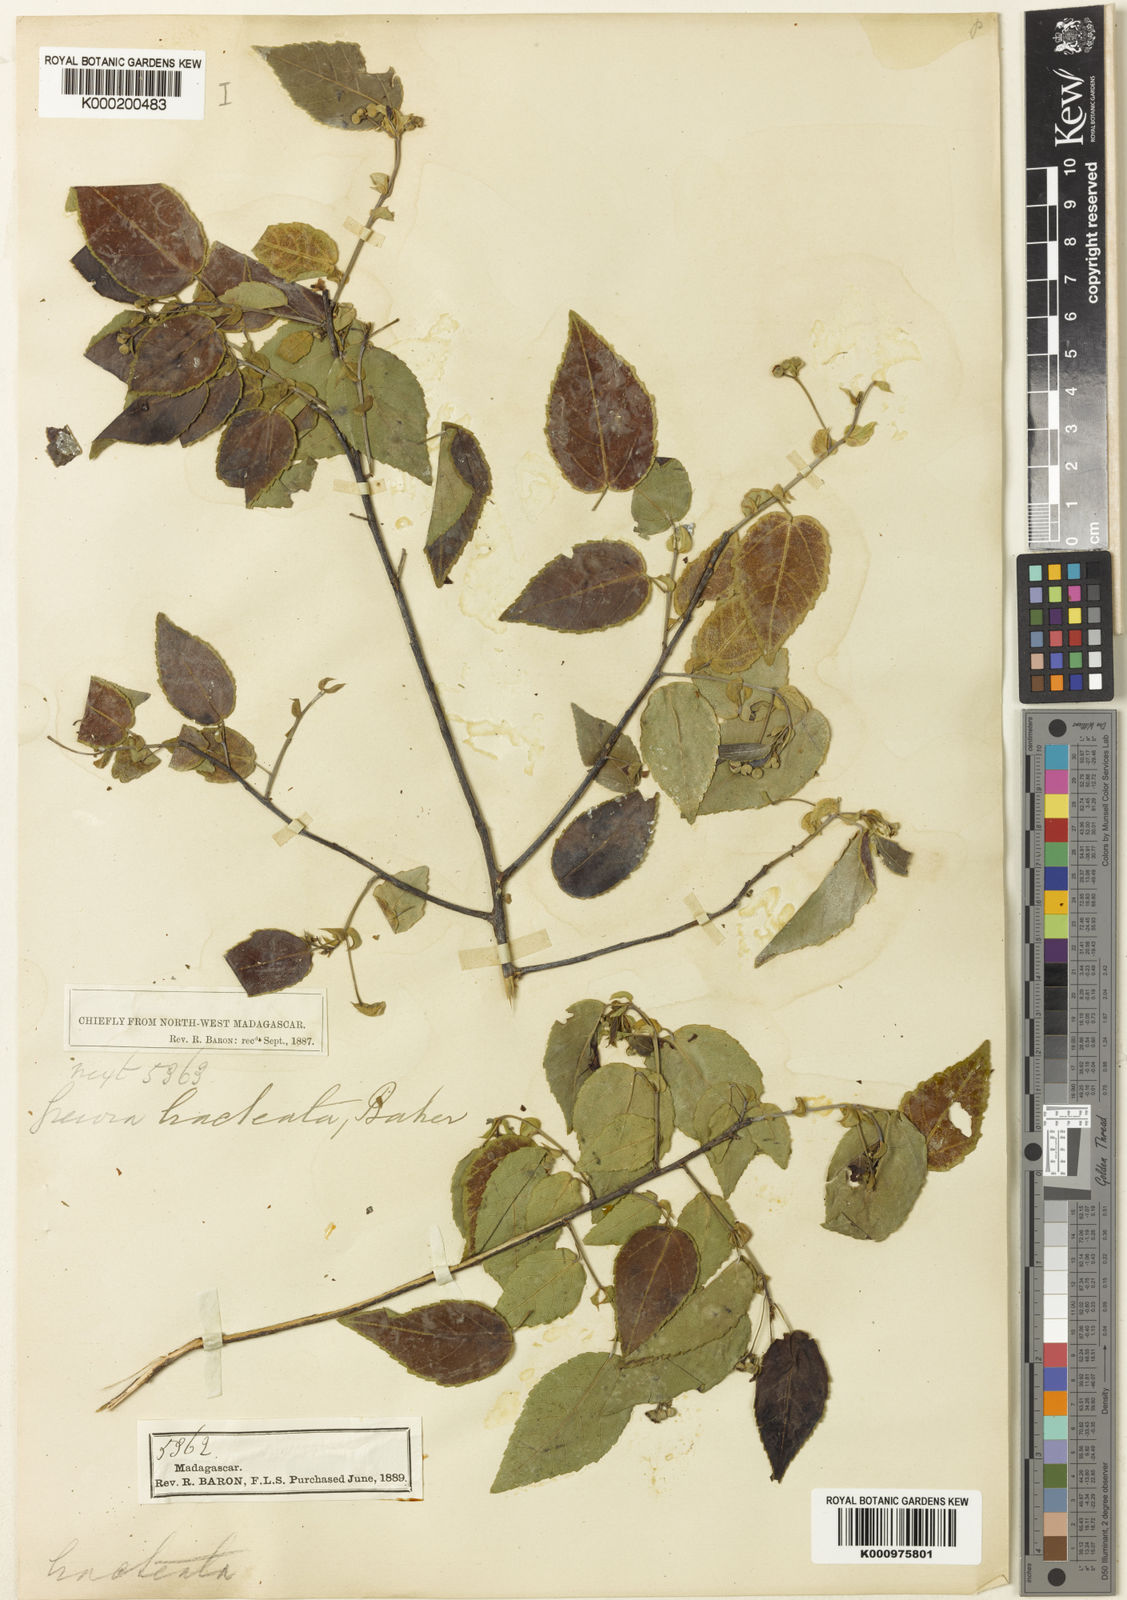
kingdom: Plantae
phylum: Tracheophyta
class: Magnoliopsida
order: Malvales
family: Malvaceae
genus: Grewia
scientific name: Grewia picta
